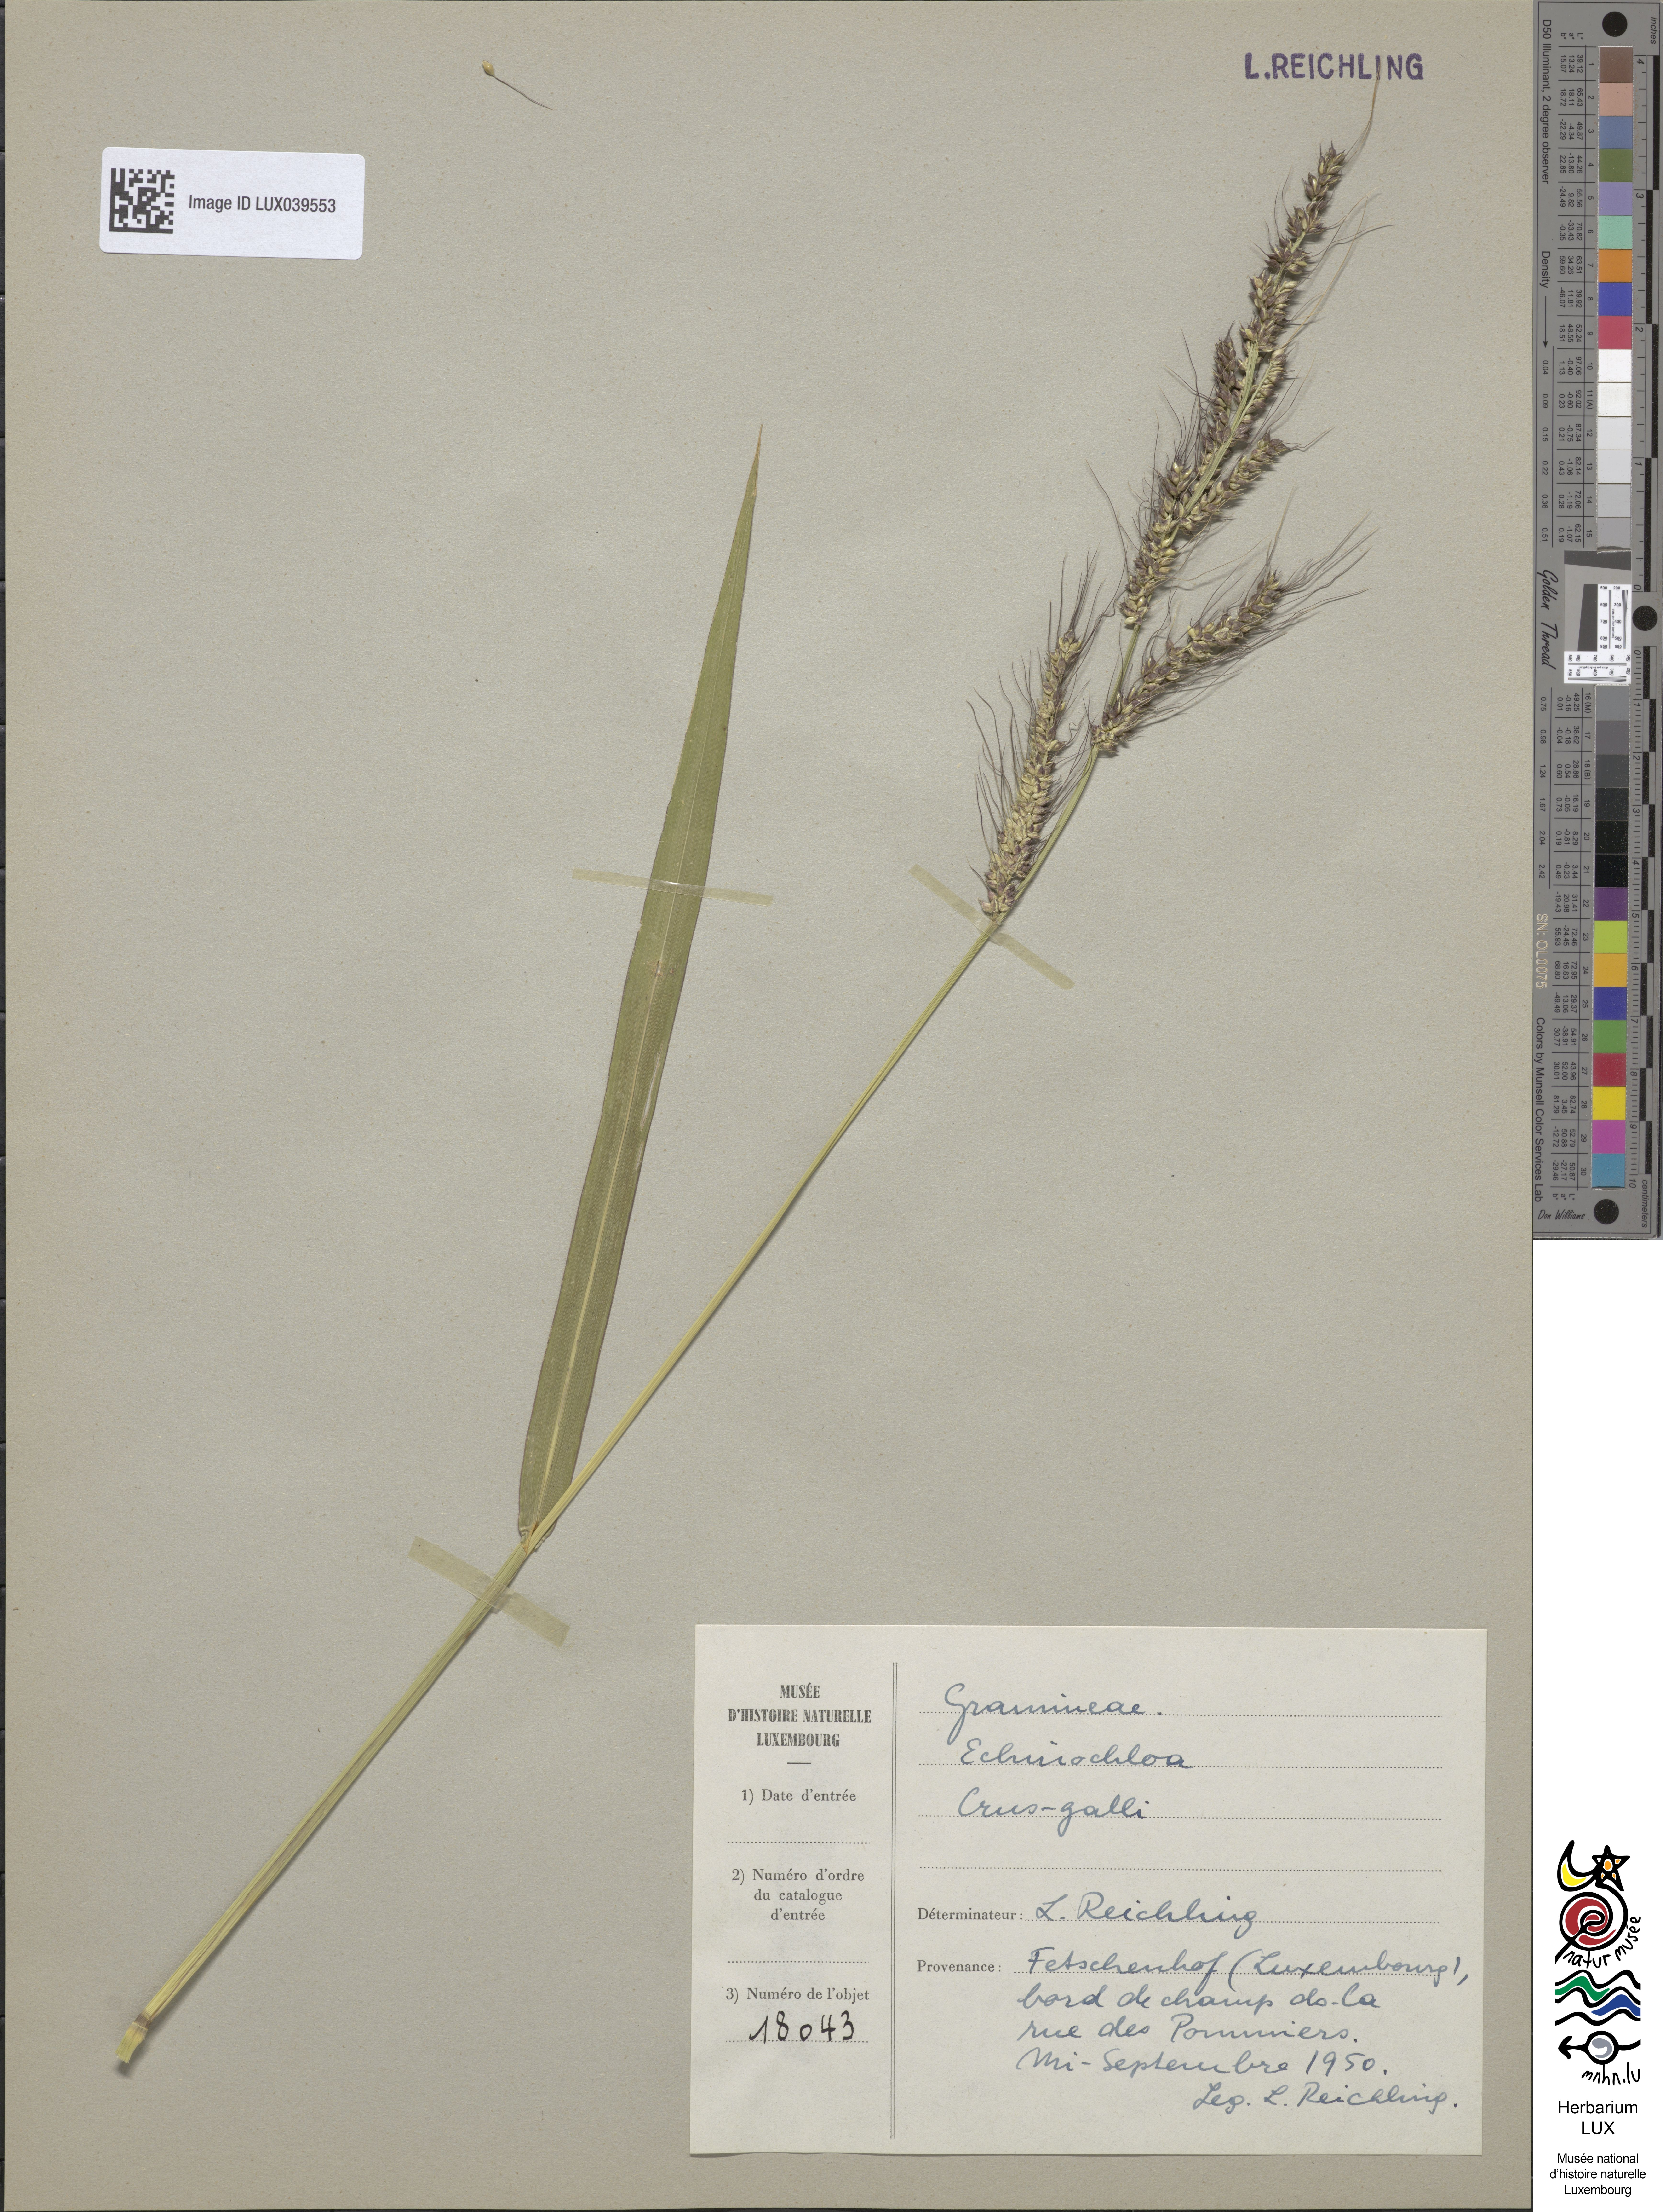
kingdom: Plantae
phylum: Tracheophyta
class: Liliopsida
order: Poales
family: Poaceae
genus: Echinochloa
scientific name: Echinochloa crus-galli
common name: Cockspur
